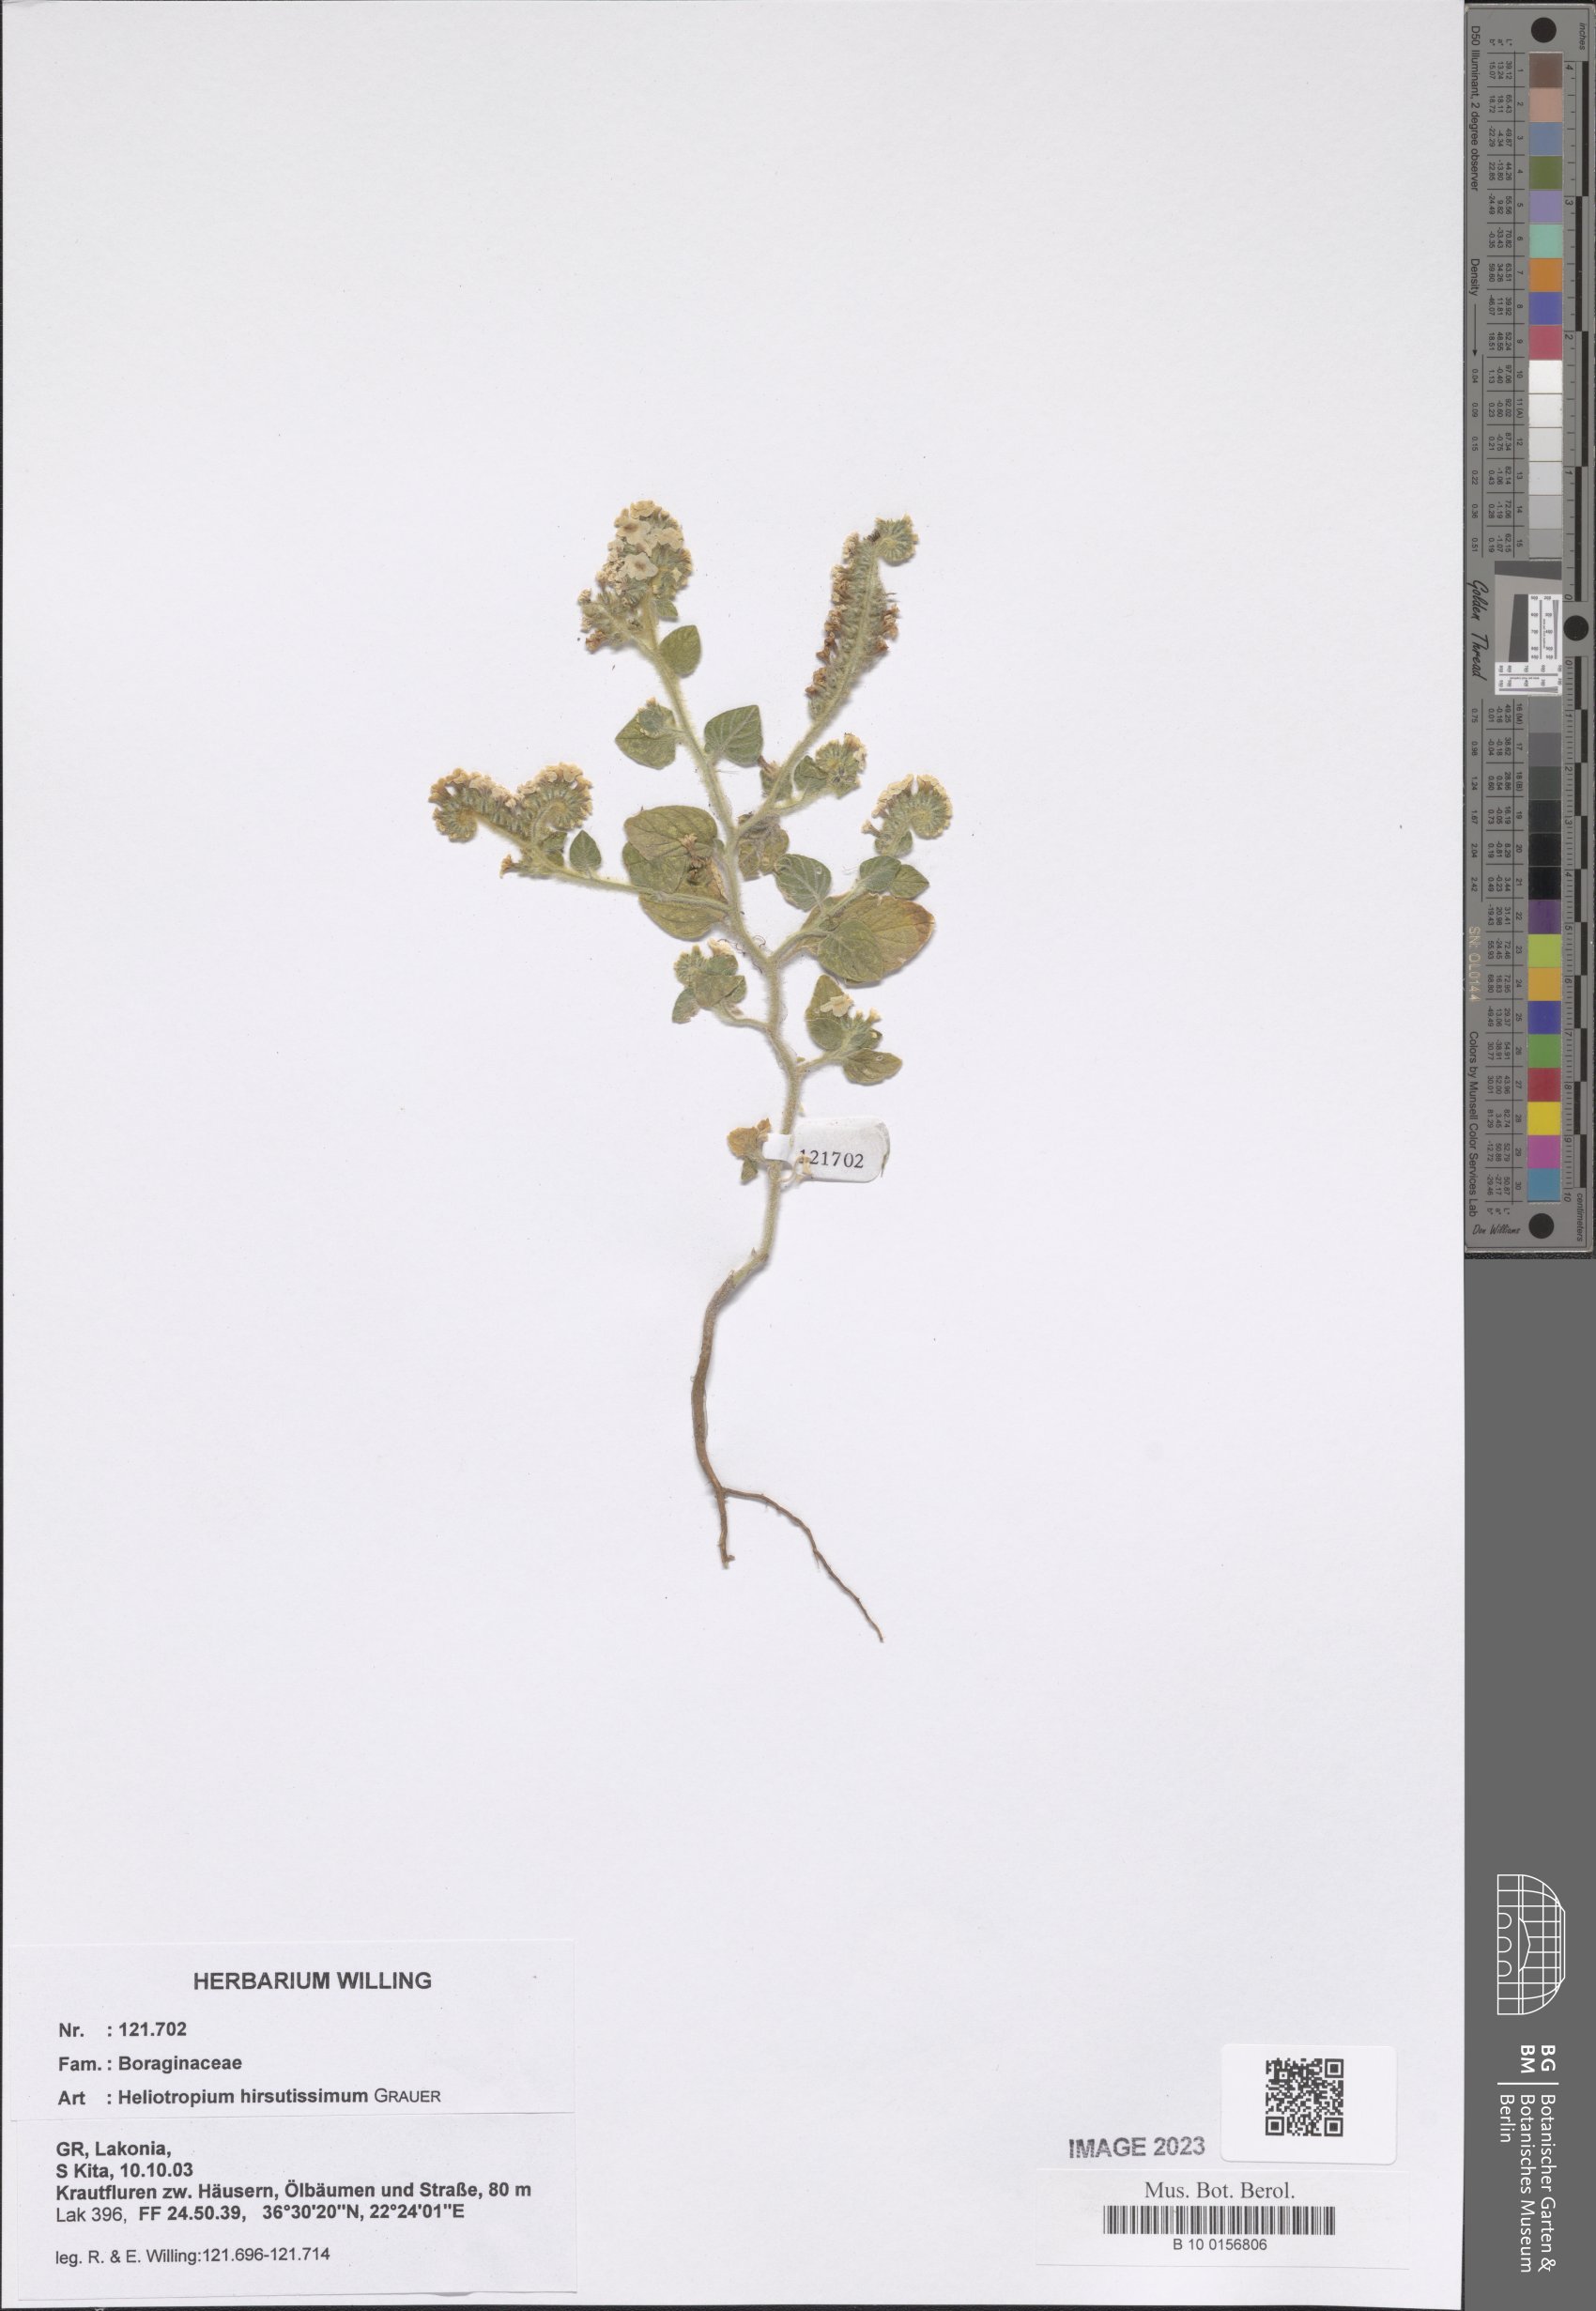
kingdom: Plantae
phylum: Tracheophyta
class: Magnoliopsida
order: Boraginales
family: Heliotropiaceae
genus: Heliotropium
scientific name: Heliotropium hirsutissimum
